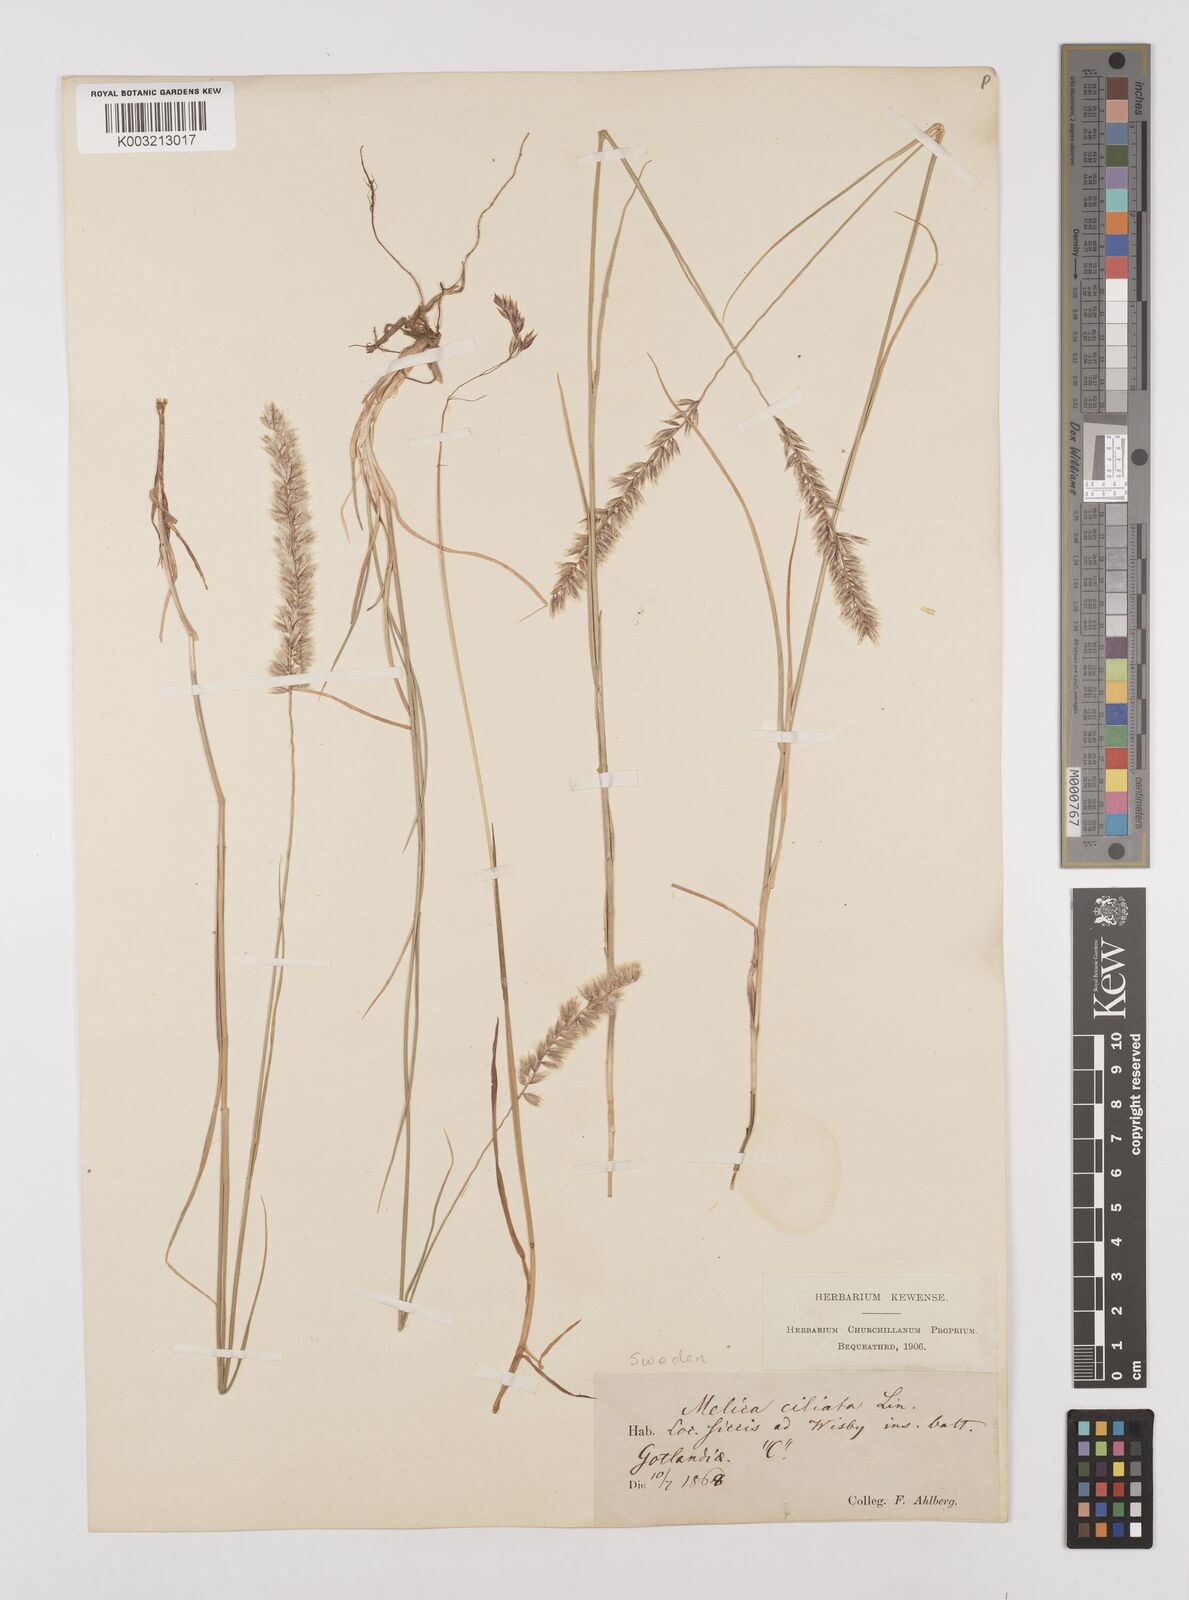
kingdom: Plantae
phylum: Tracheophyta
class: Liliopsida
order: Poales
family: Poaceae
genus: Melica
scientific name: Melica ciliata
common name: Hairy melicgrass
